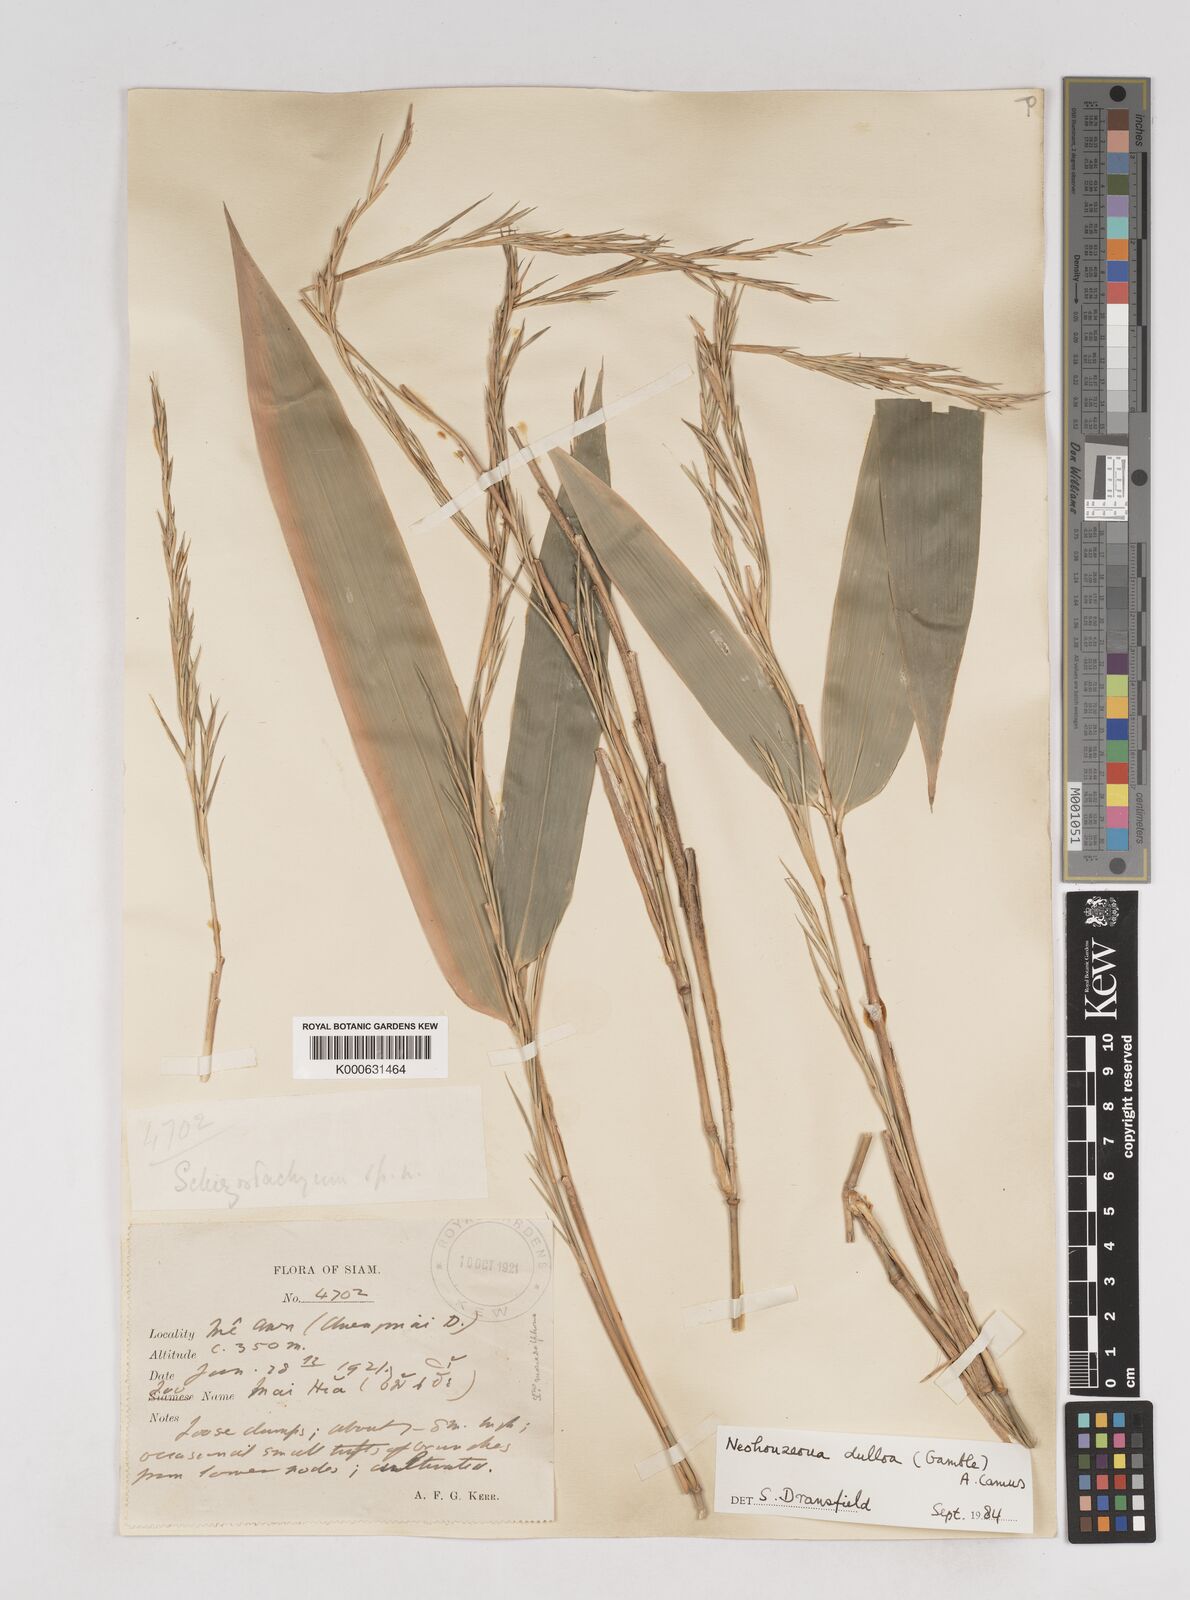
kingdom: Plantae
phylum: Tracheophyta
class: Liliopsida
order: Poales
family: Poaceae
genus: Schizostachyum
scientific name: Schizostachyum dullooa
